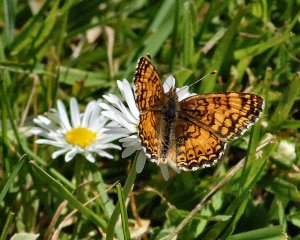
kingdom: Animalia
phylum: Arthropoda
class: Insecta
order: Lepidoptera
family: Nymphalidae
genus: Eresia
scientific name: Eresia aveyrona
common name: Mylitta Crescent
